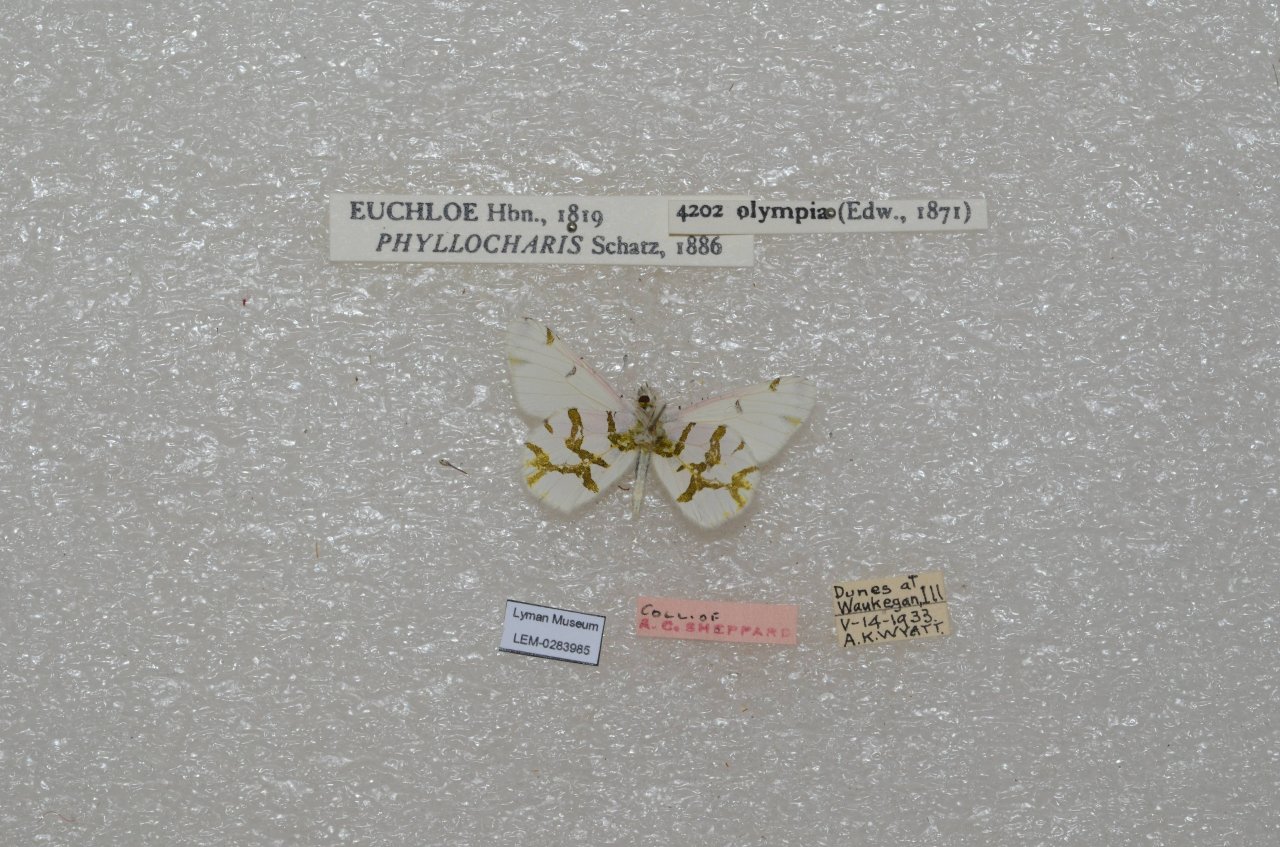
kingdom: Animalia
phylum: Arthropoda
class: Insecta
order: Lepidoptera
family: Pieridae
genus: Euchloe
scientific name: Euchloe olympia
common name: Olympia Marble
